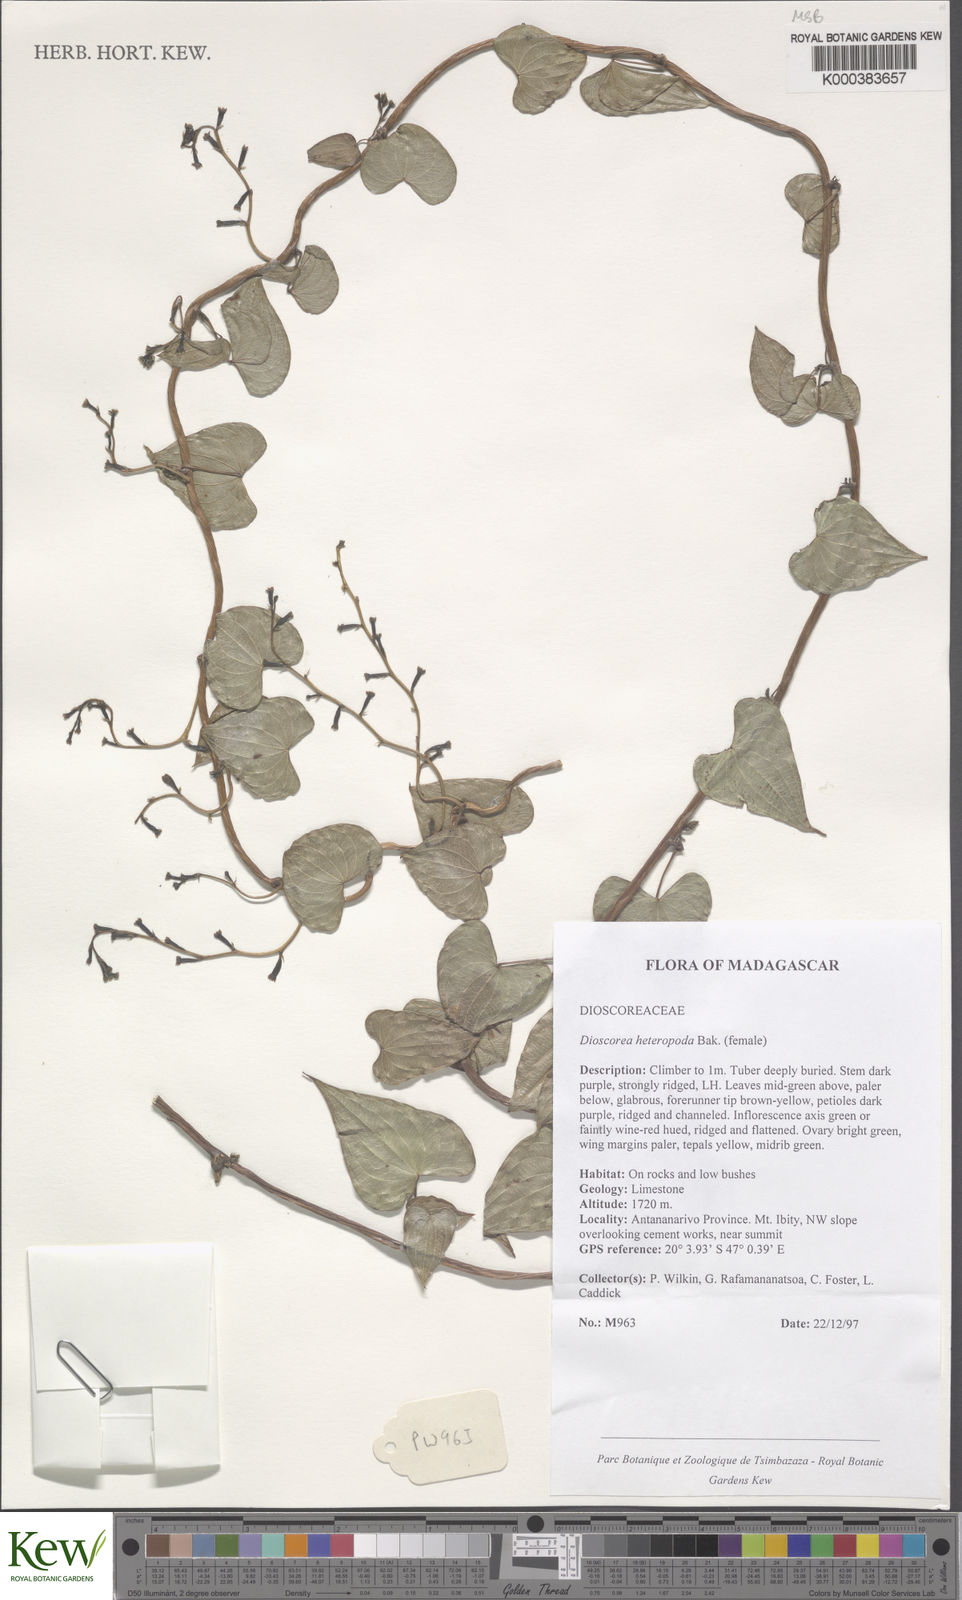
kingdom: Plantae
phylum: Tracheophyta
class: Liliopsida
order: Dioscoreales
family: Dioscoreaceae
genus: Dioscorea
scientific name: Dioscorea heteropoda
